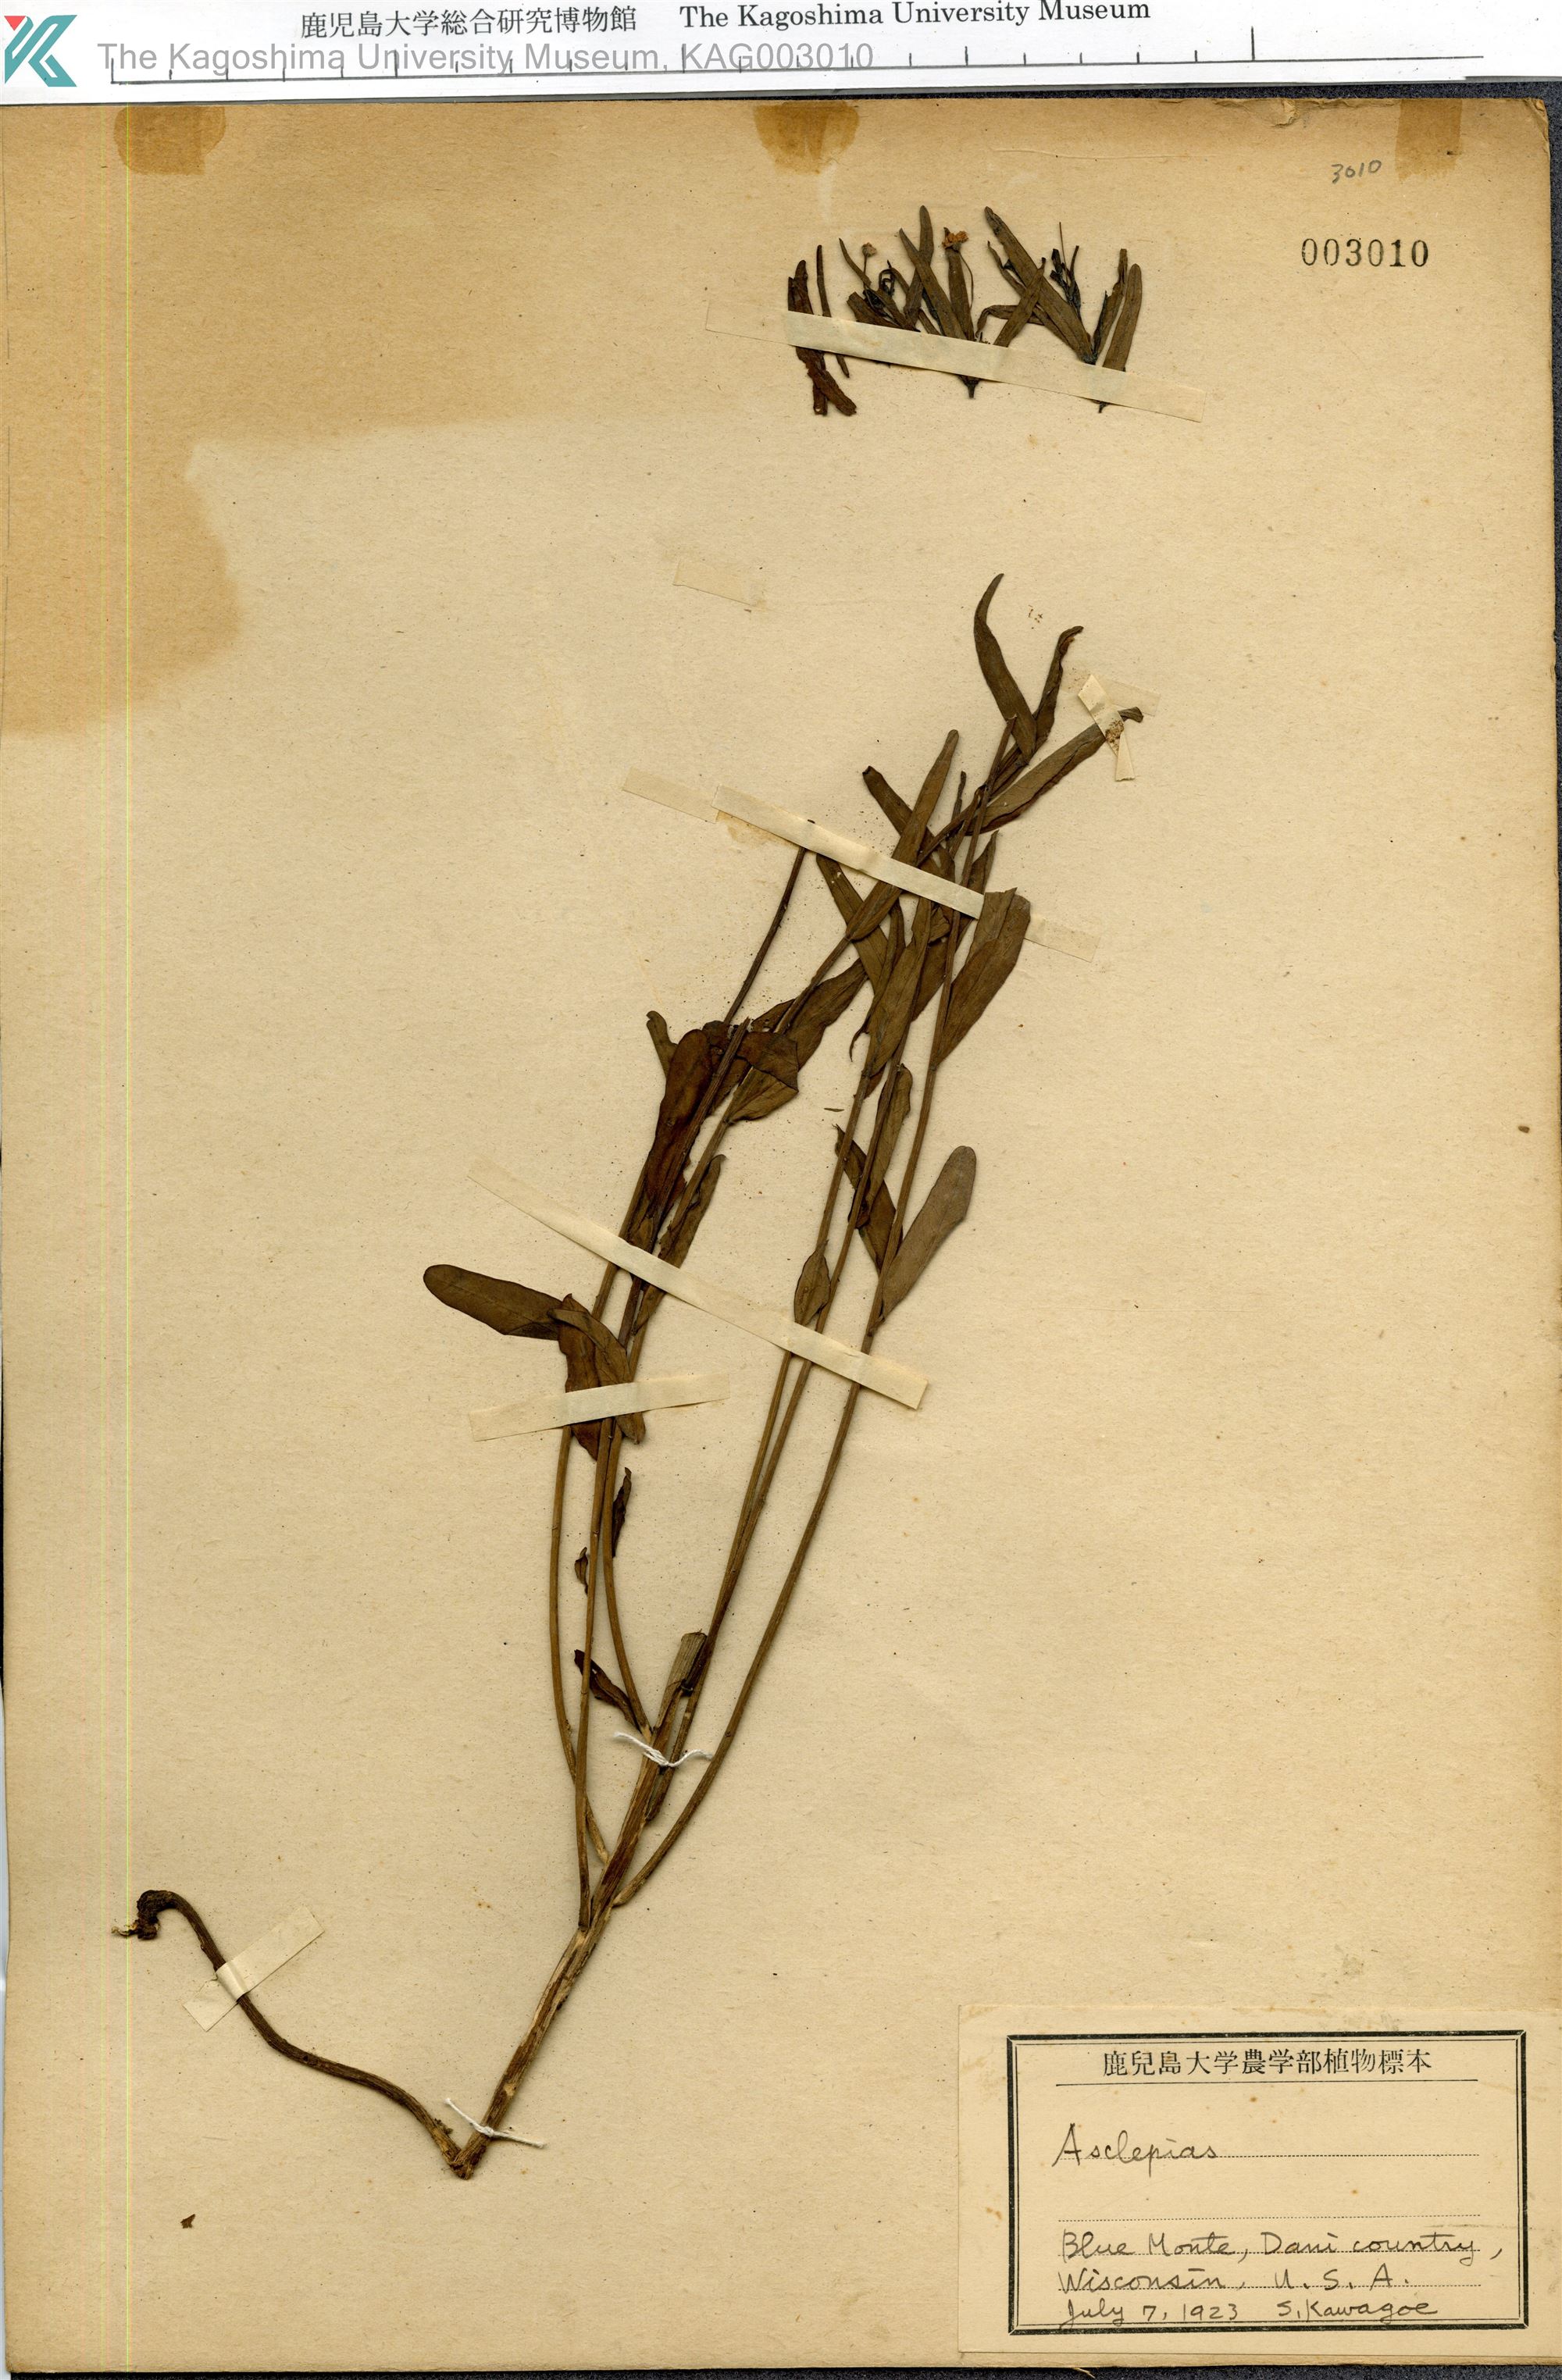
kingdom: Plantae
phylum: Tracheophyta
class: Magnoliopsida
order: Gentianales
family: Apocynaceae
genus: Asclepias
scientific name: Asclepias
